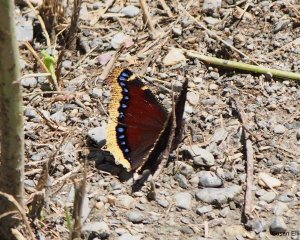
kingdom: Animalia
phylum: Arthropoda
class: Insecta
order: Lepidoptera
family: Nymphalidae
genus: Nymphalis
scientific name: Nymphalis antiopa
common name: Mourning Cloak
